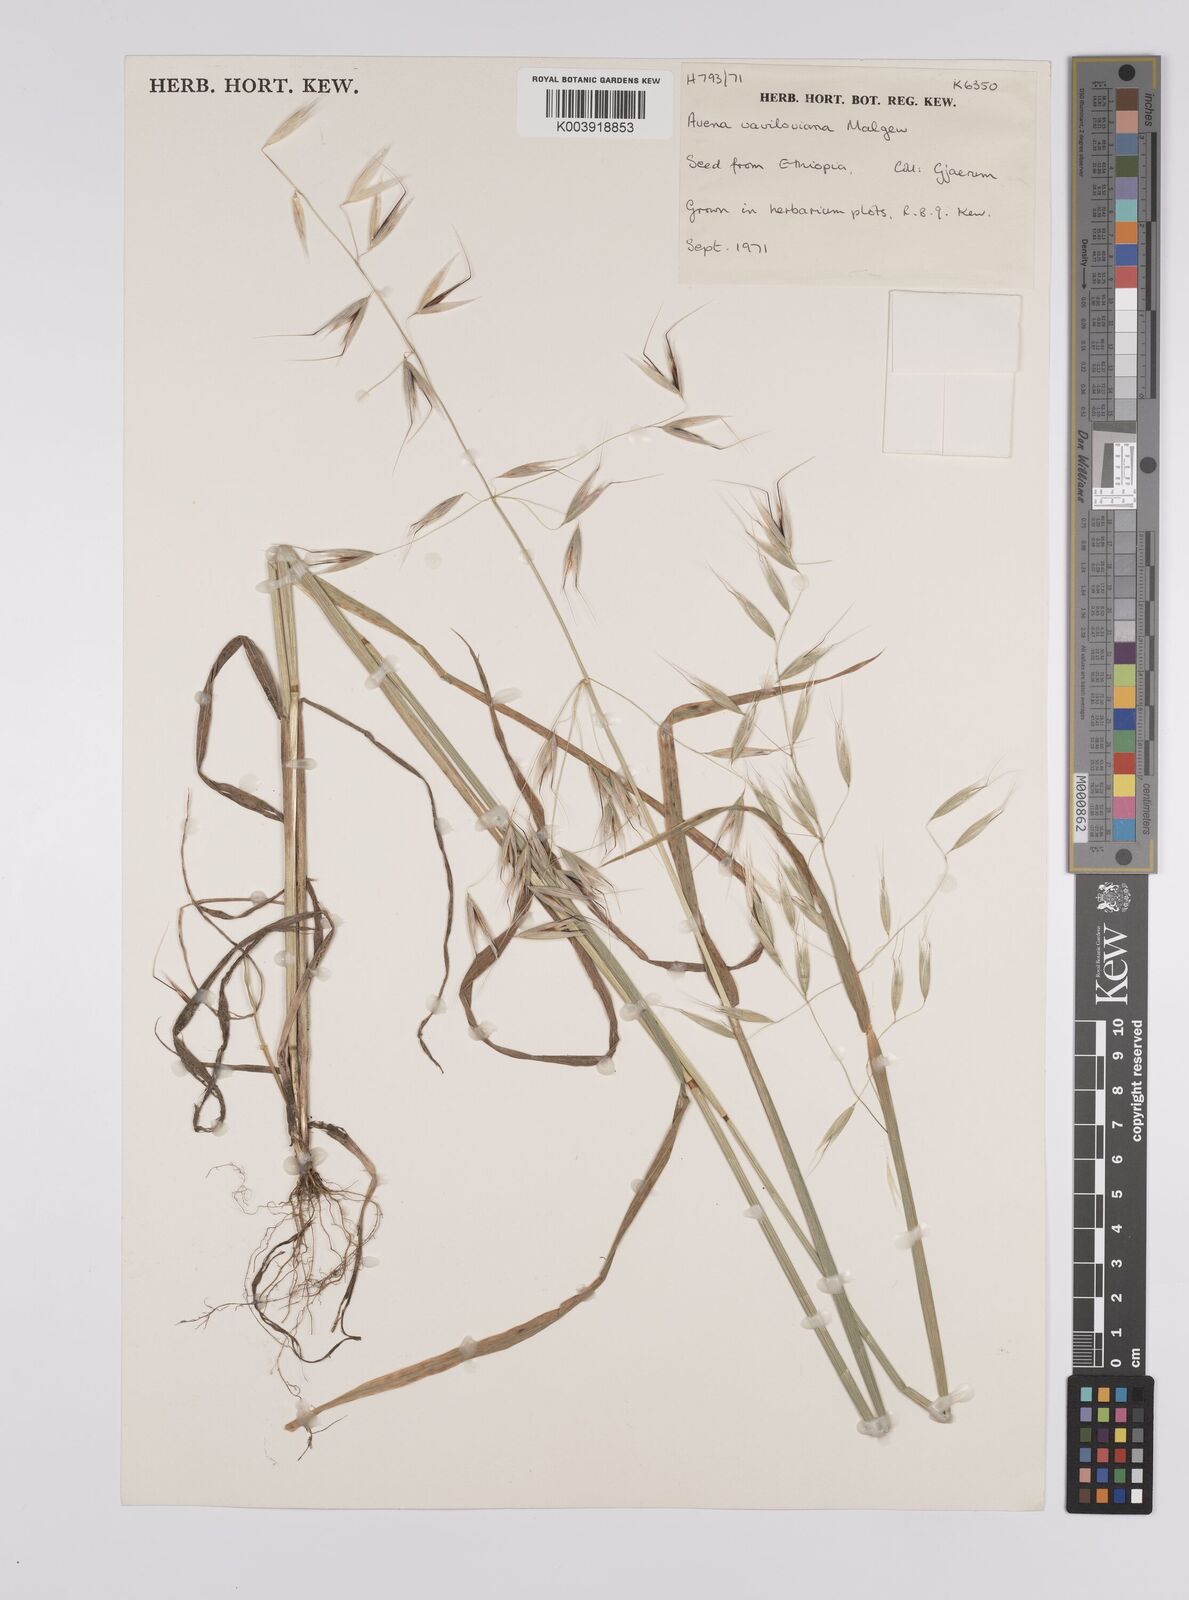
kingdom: Plantae
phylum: Tracheophyta
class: Liliopsida
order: Poales
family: Poaceae
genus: Avena
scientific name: Avena vaviloviana
